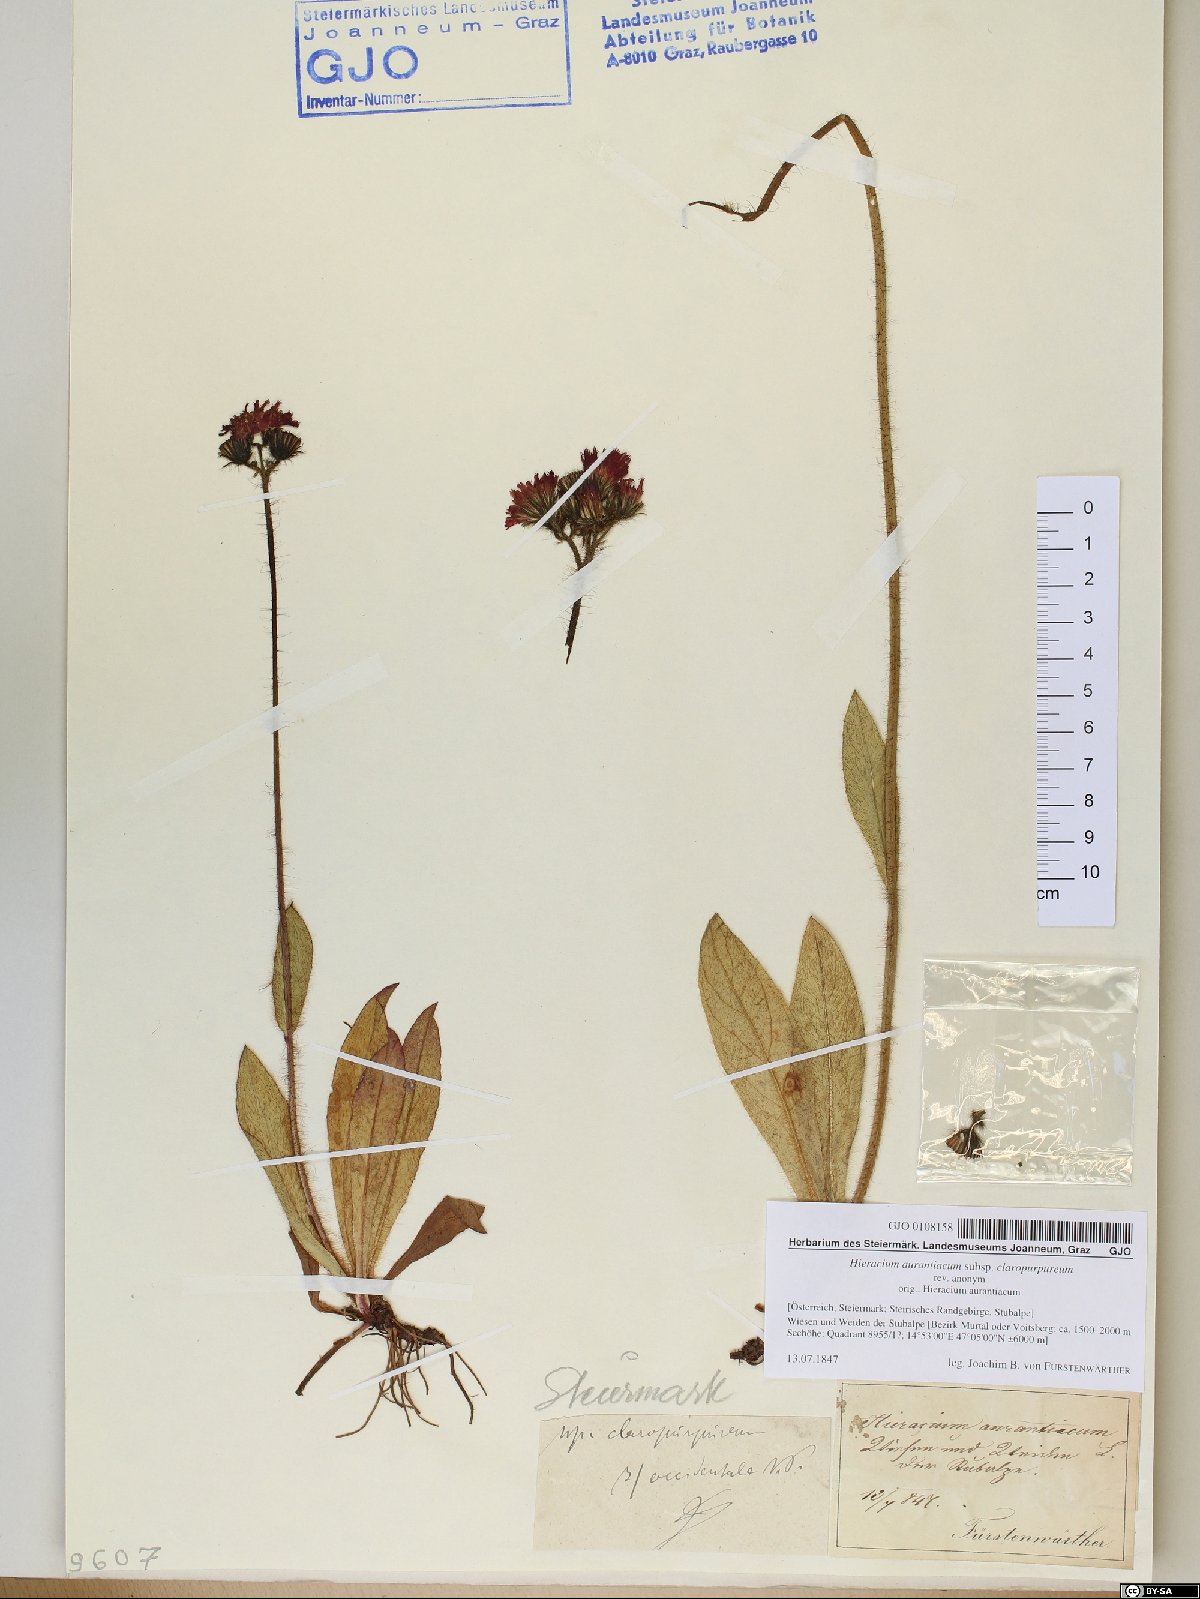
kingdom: Plantae
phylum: Tracheophyta
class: Magnoliopsida
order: Asterales
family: Asteraceae
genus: Pilosella
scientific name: Pilosella aurantiaca
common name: Fox-and-cubs
